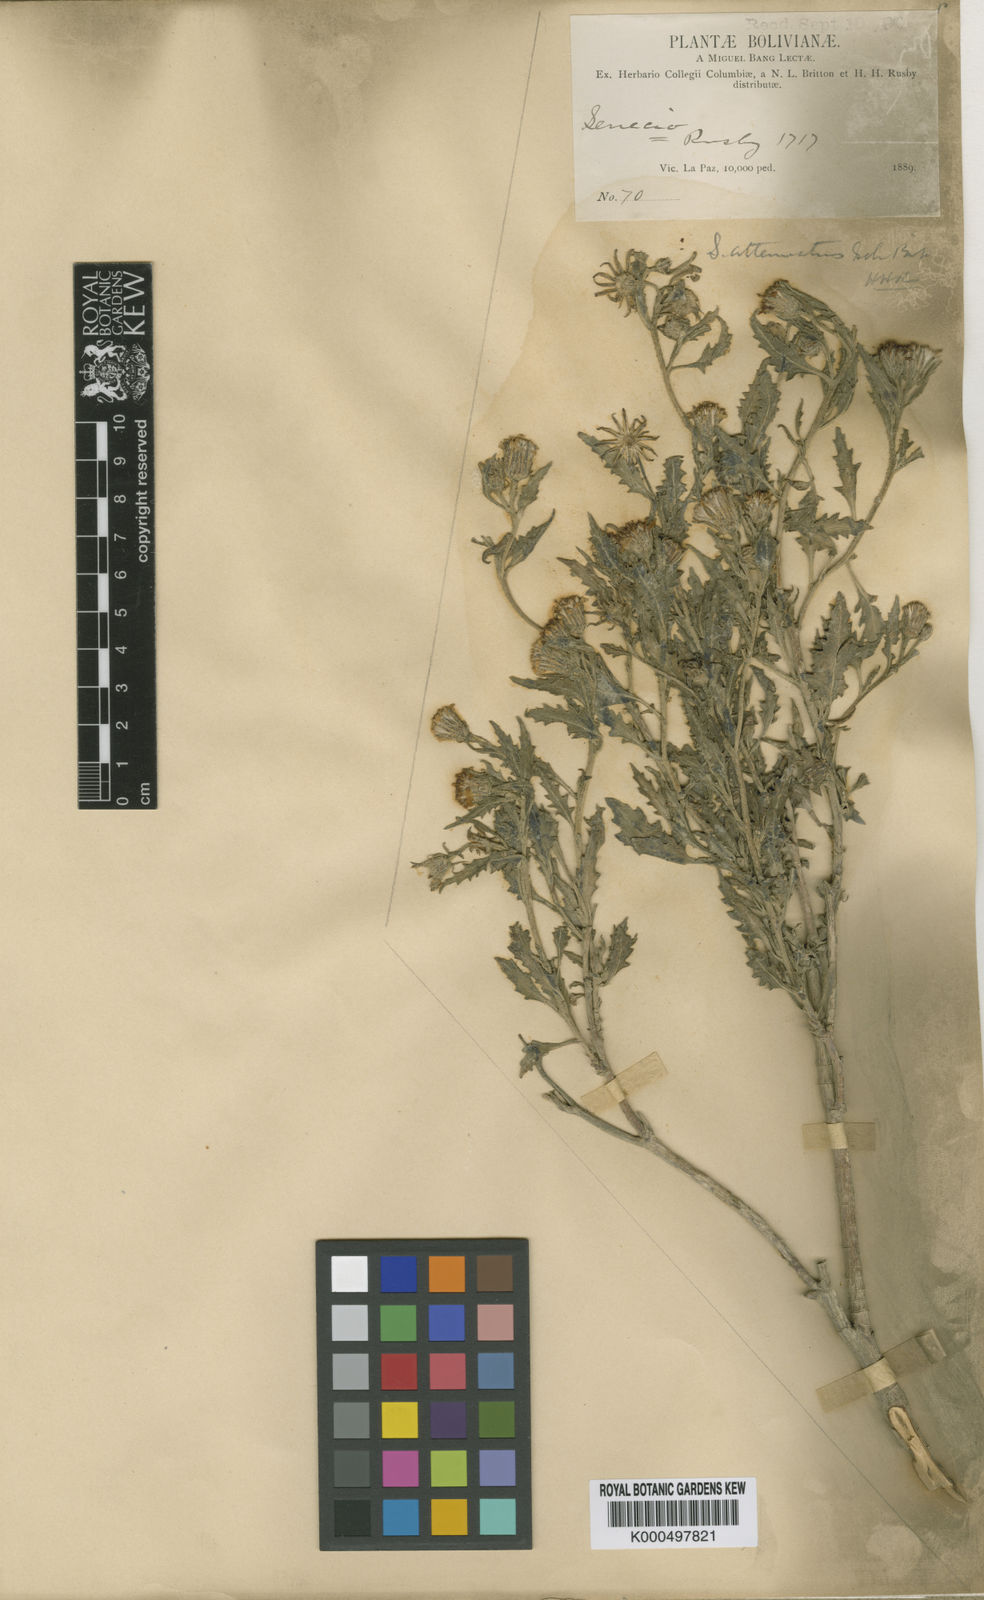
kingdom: Plantae
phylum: Tracheophyta
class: Magnoliopsida
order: Asterales
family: Asteraceae
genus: Senecio
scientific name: Senecio
